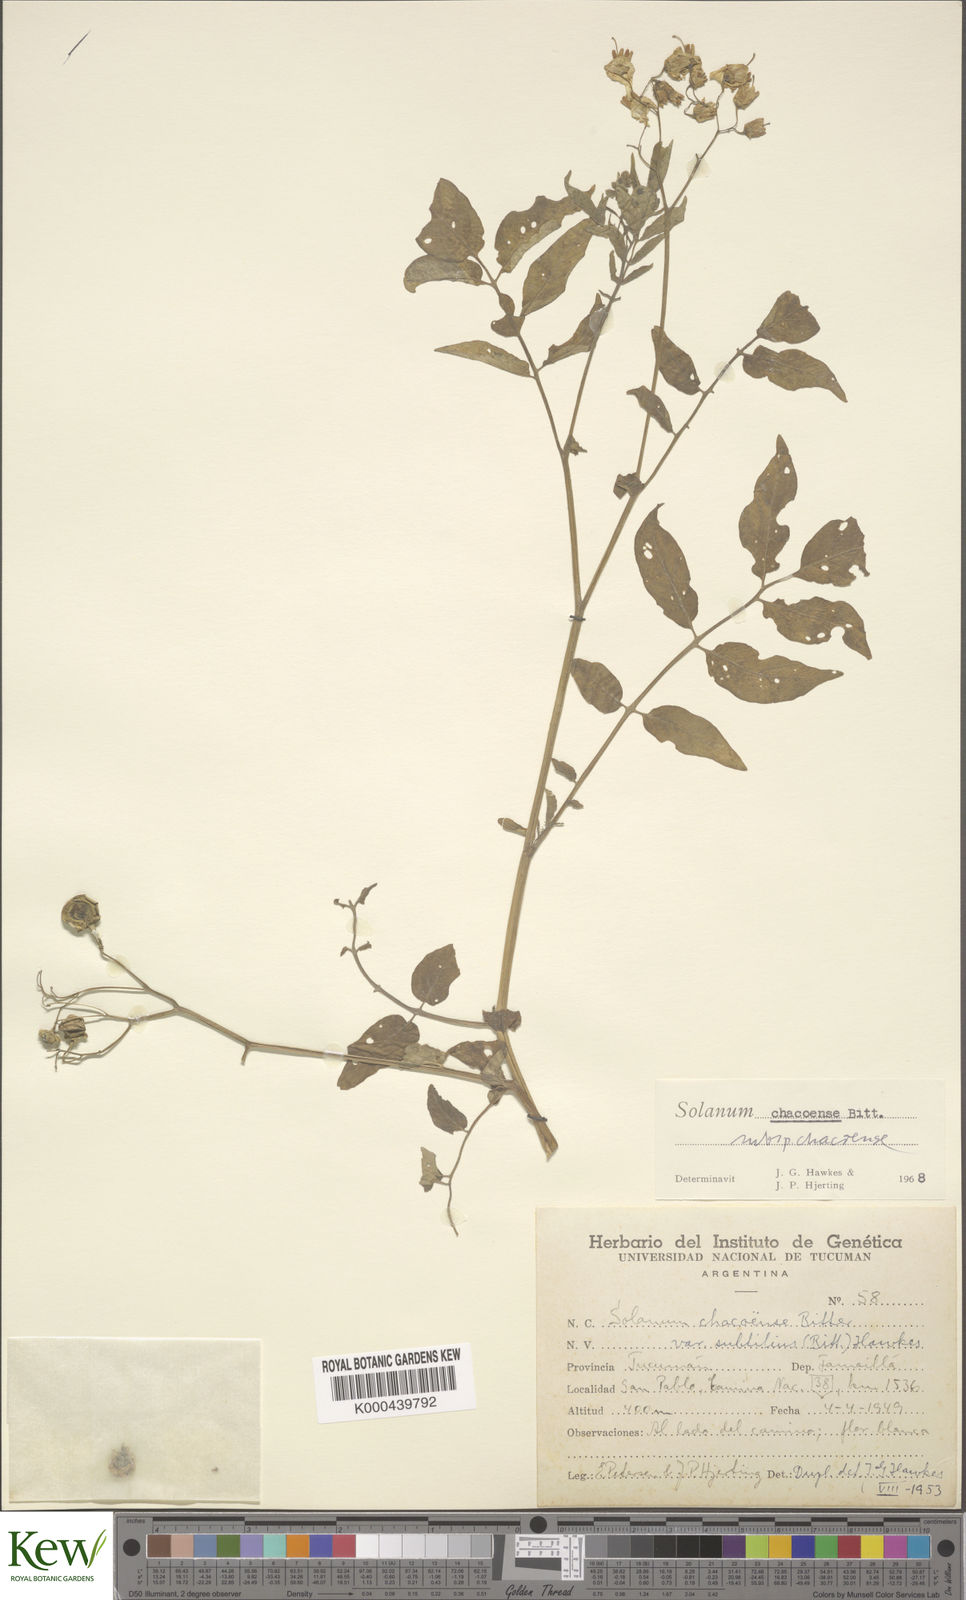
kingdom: Plantae
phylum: Tracheophyta
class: Magnoliopsida
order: Solanales
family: Solanaceae
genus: Solanum
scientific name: Solanum chacoense
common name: Chaco potato
